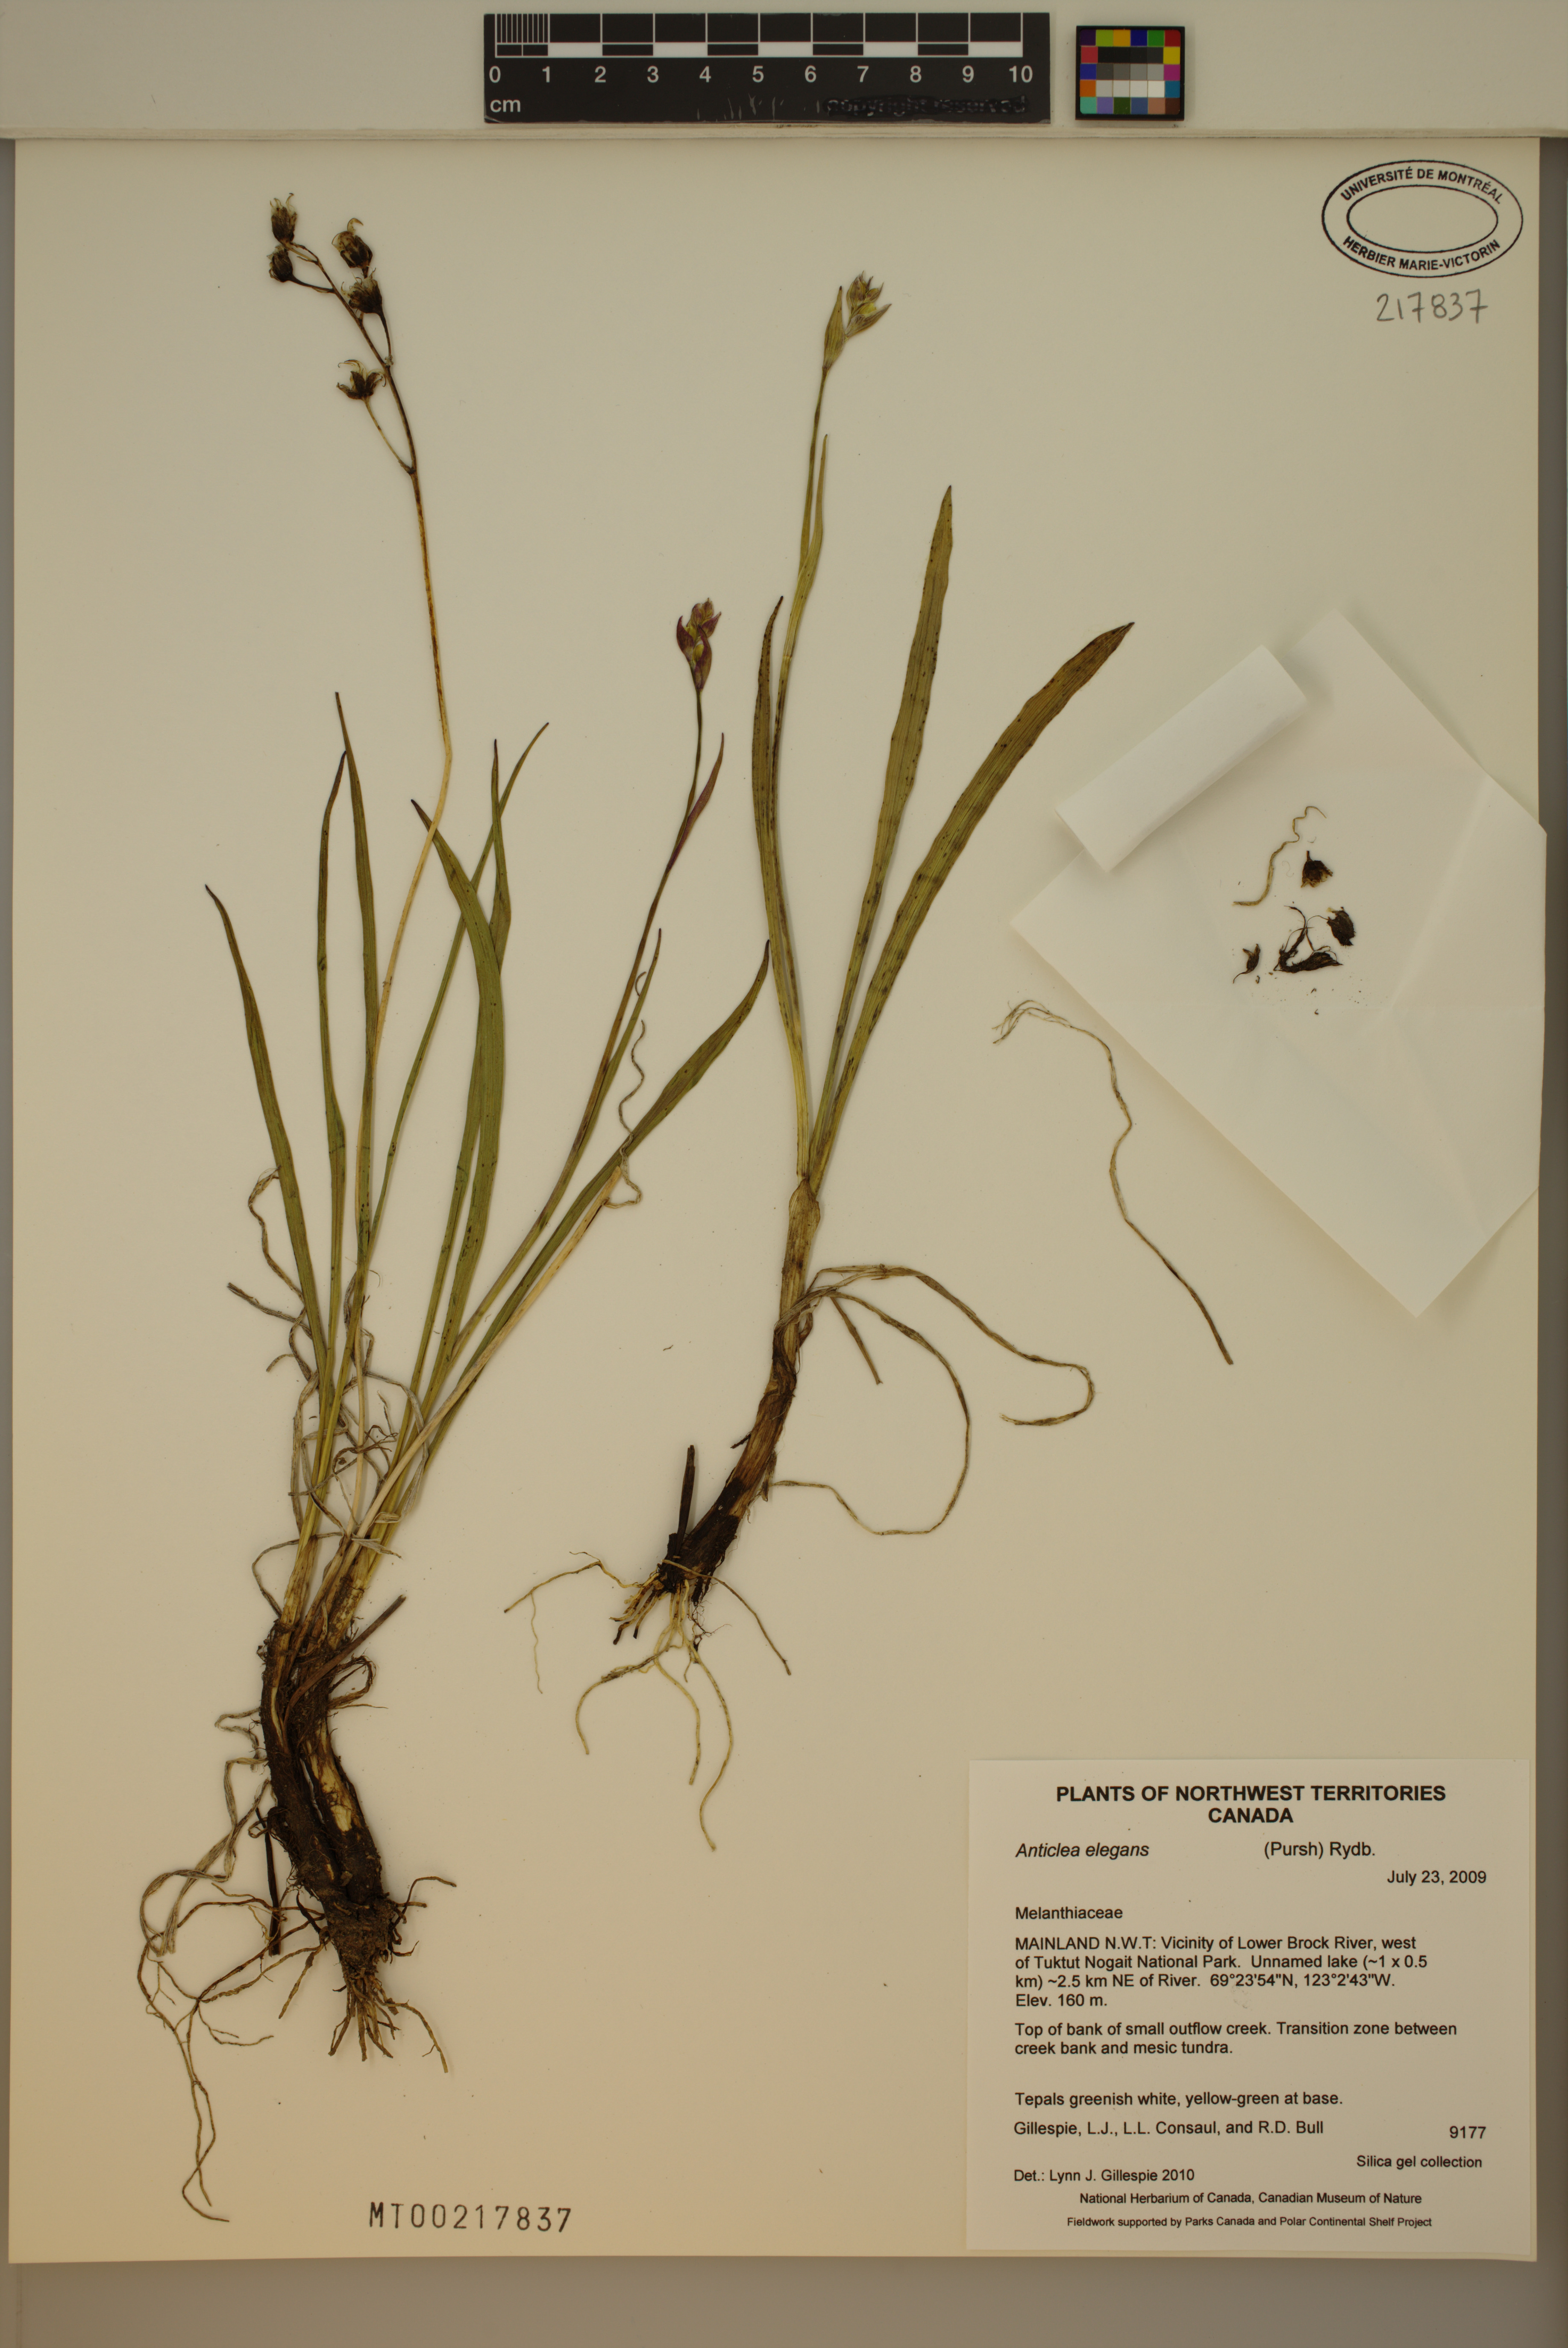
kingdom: Plantae
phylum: Tracheophyta
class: Liliopsida
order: Liliales
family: Melanthiaceae
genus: Anticlea
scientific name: Anticlea elegans
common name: Mountain death camas
